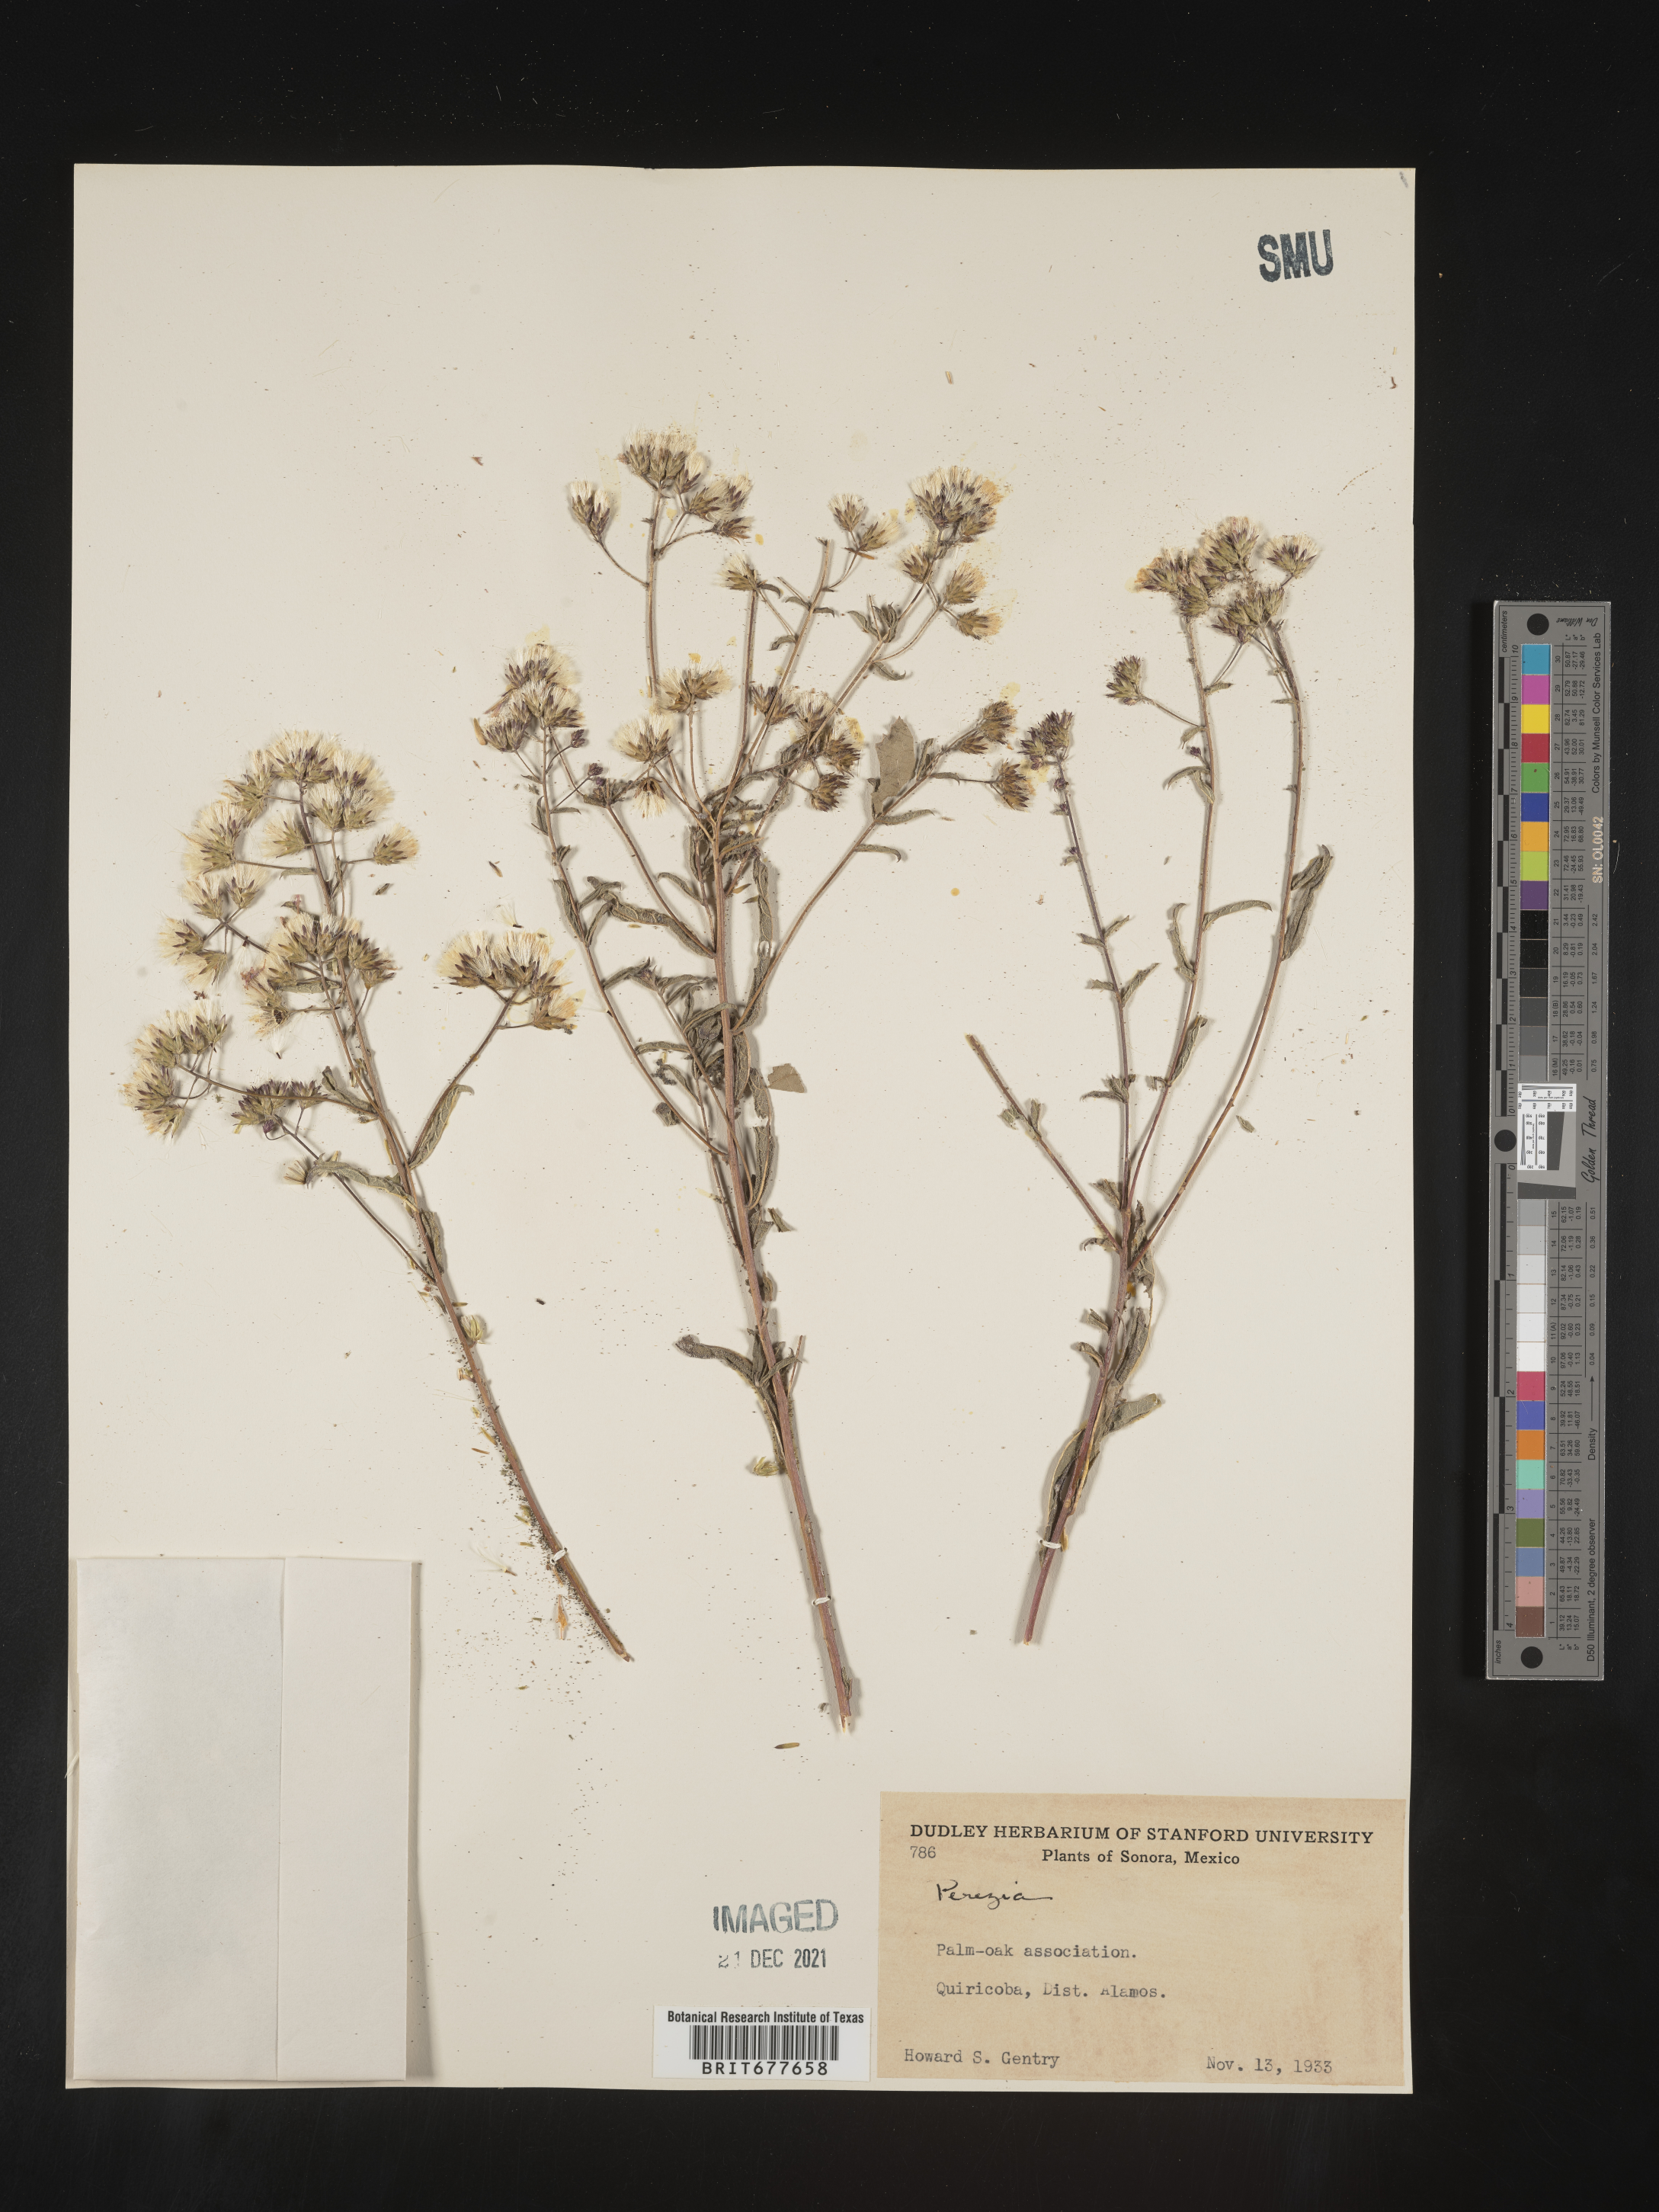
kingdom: Plantae
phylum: Tracheophyta
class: Magnoliopsida
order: Asterales
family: Asteraceae
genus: Perezia
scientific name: Perezia
